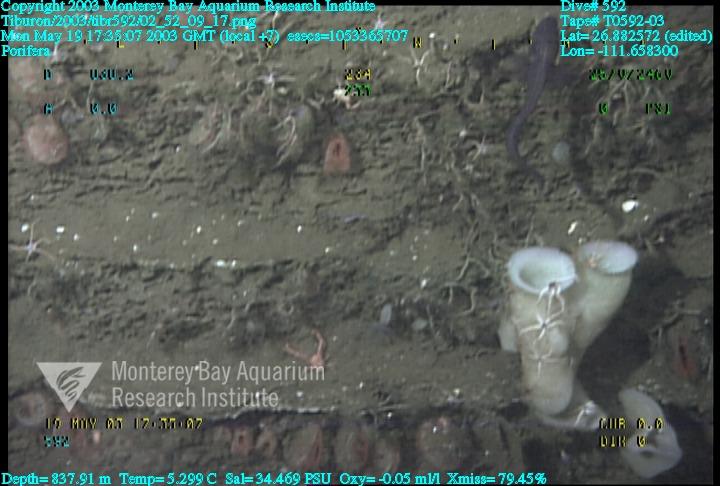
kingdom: Animalia
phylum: Porifera
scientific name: Porifera
